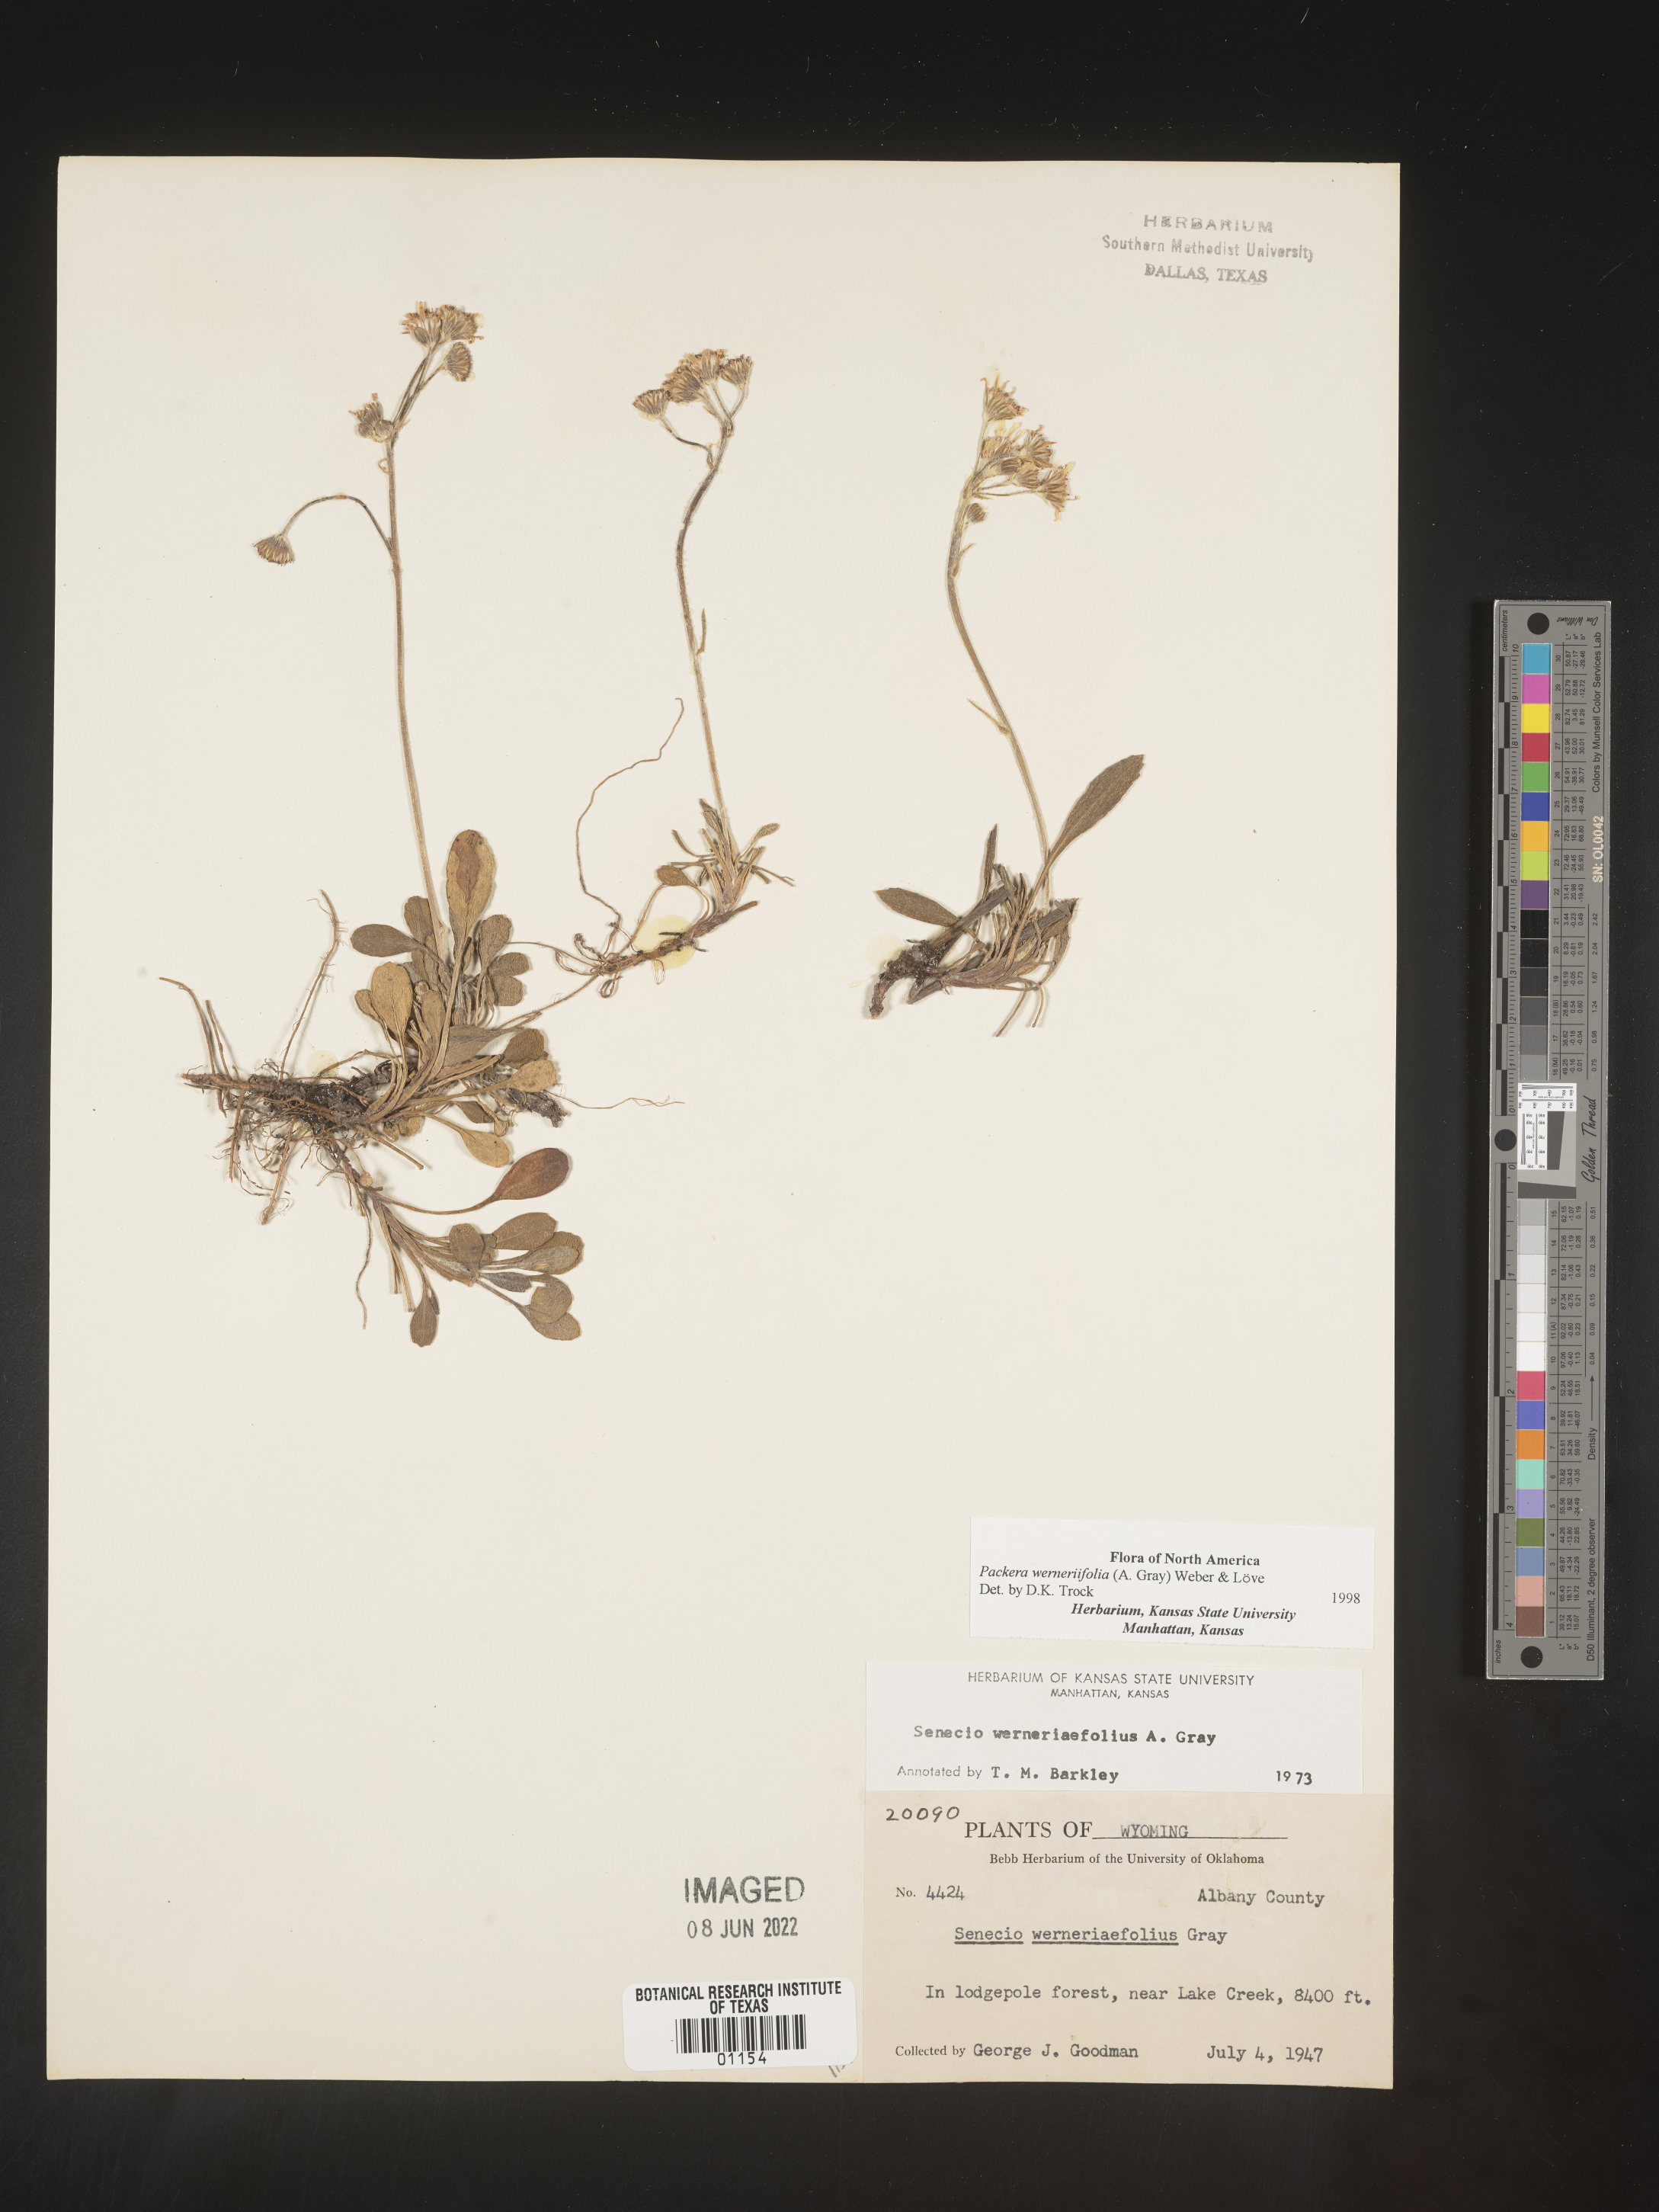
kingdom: Plantae
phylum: Tracheophyta
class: Magnoliopsida
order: Asterales
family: Asteraceae
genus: Packera
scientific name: Packera werneriifolia
